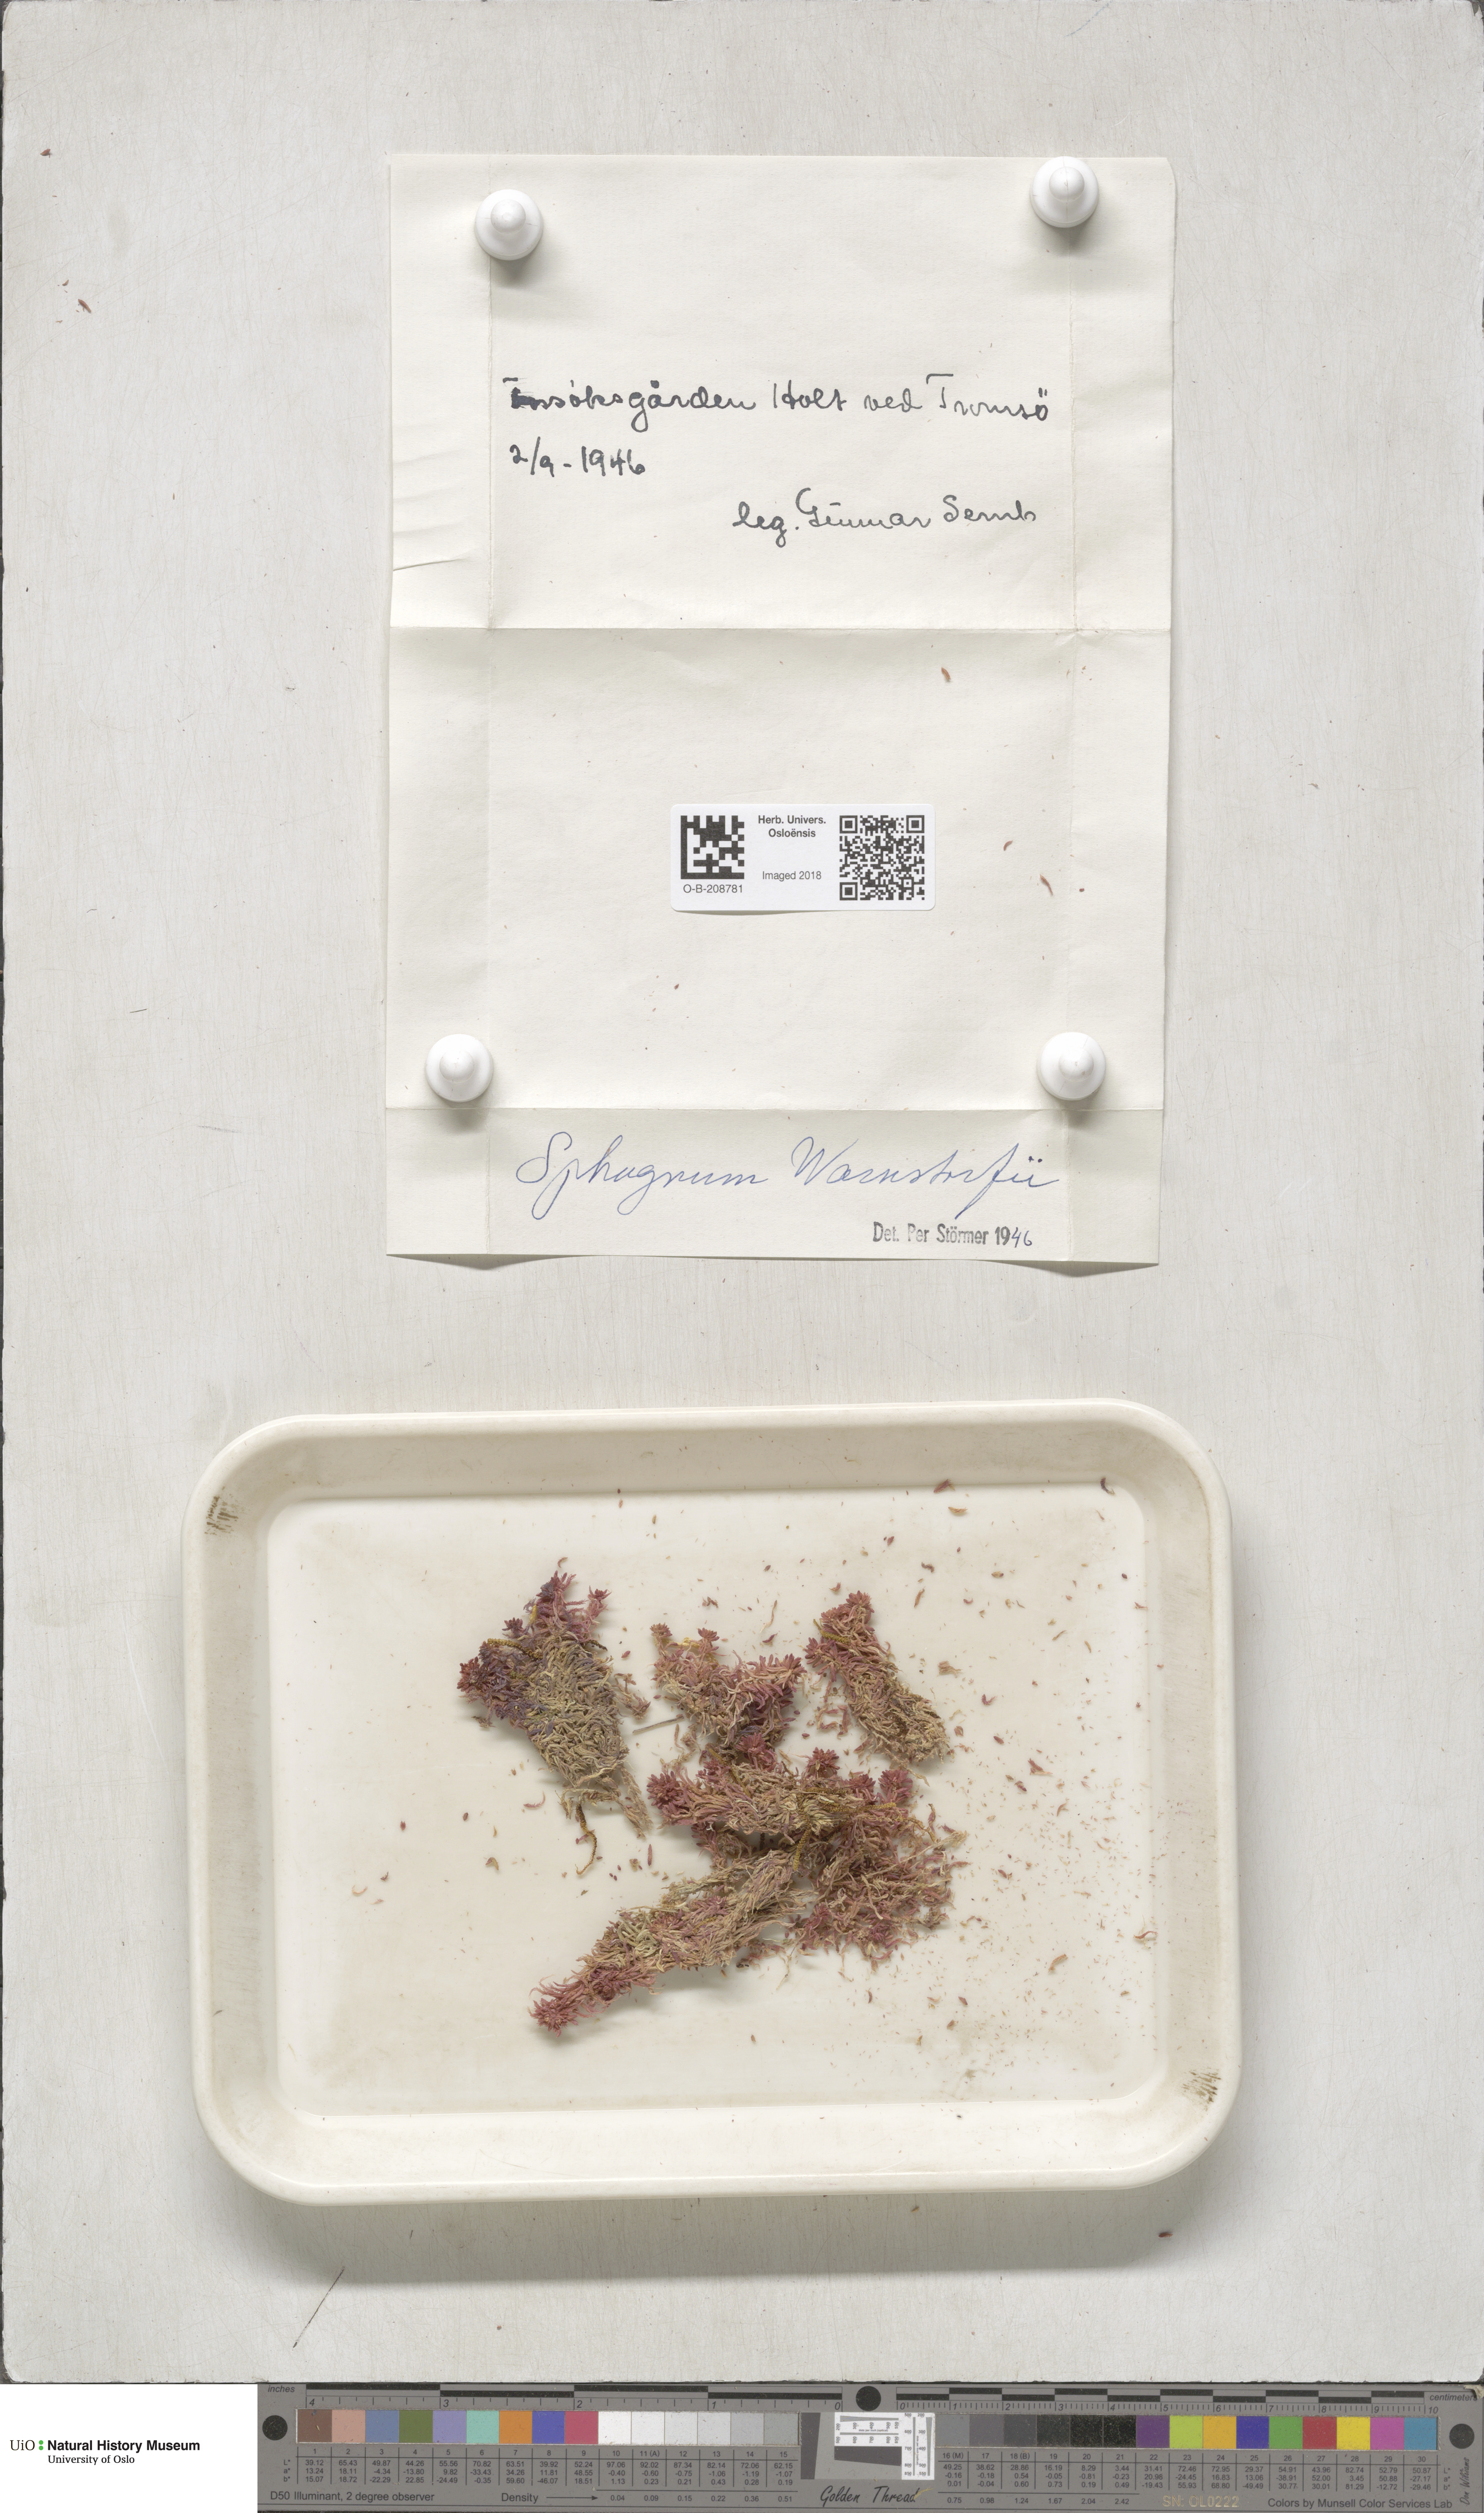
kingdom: Plantae
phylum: Bryophyta
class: Sphagnopsida
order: Sphagnales
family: Sphagnaceae
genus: Sphagnum
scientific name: Sphagnum warnstorfii
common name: Warnstorf's peat moss
